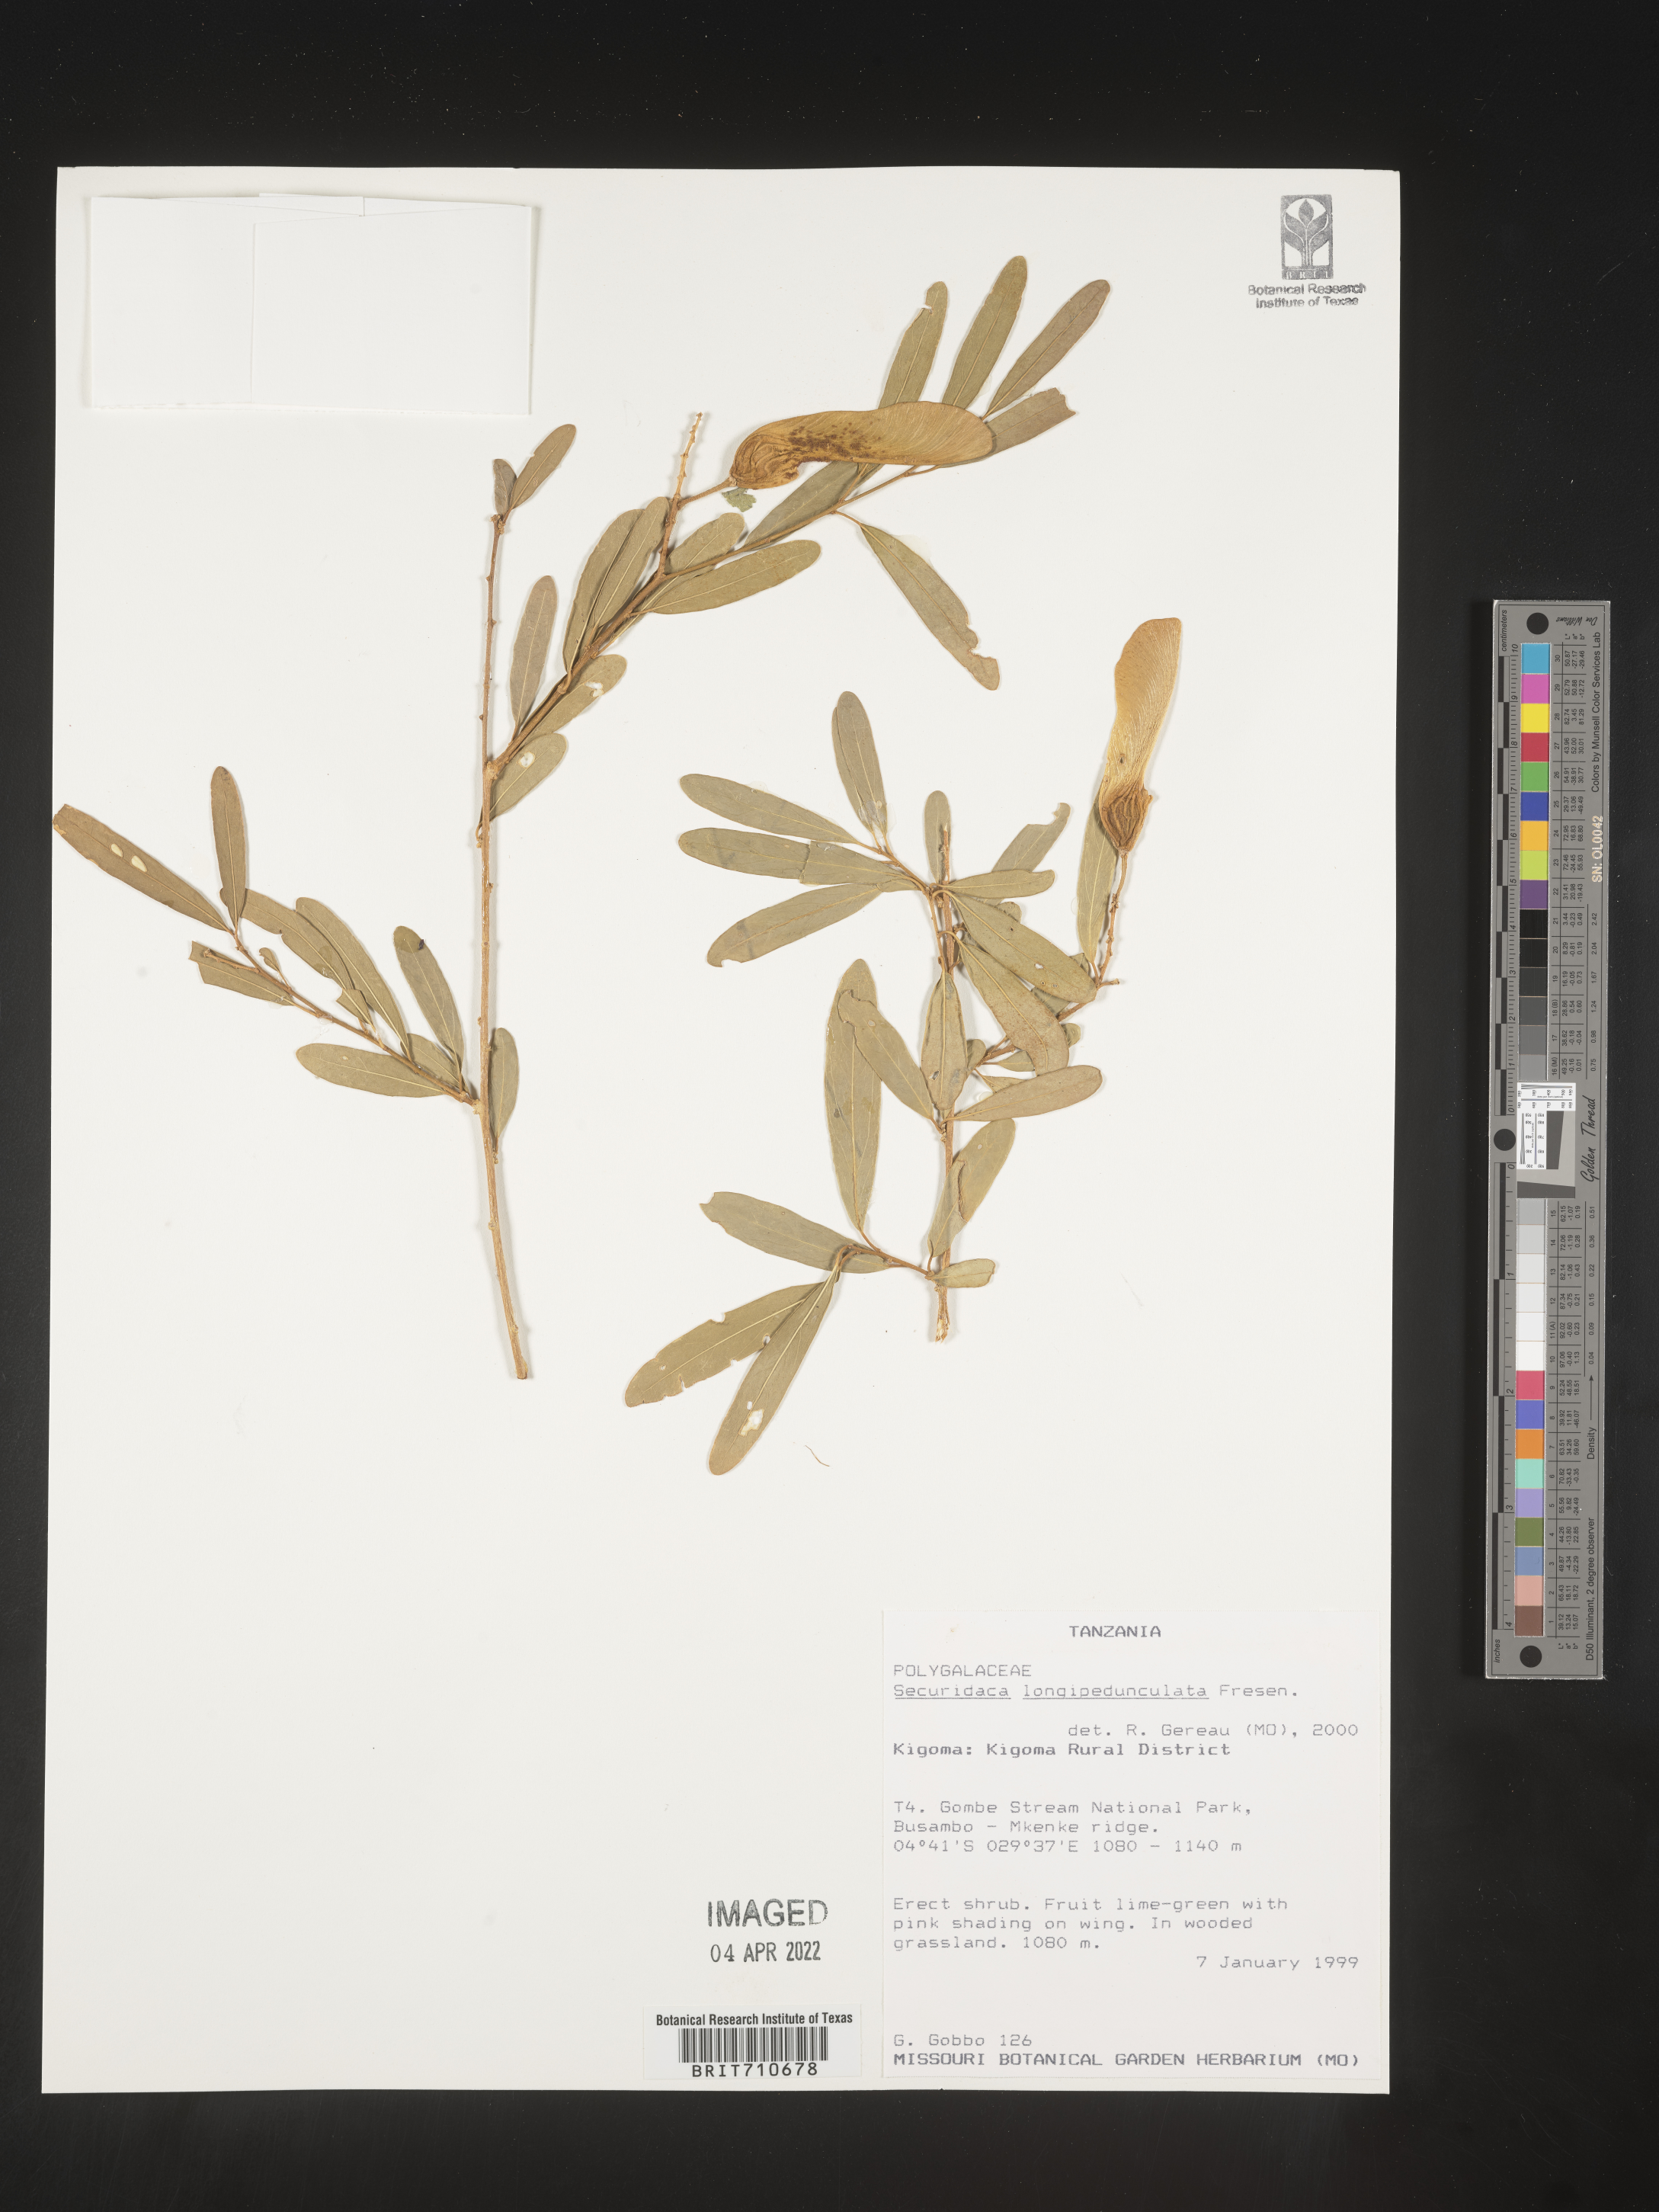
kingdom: Plantae
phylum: Tracheophyta
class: Magnoliopsida
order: Fabales
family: Polygalaceae
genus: Securidaca
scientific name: Securidaca
